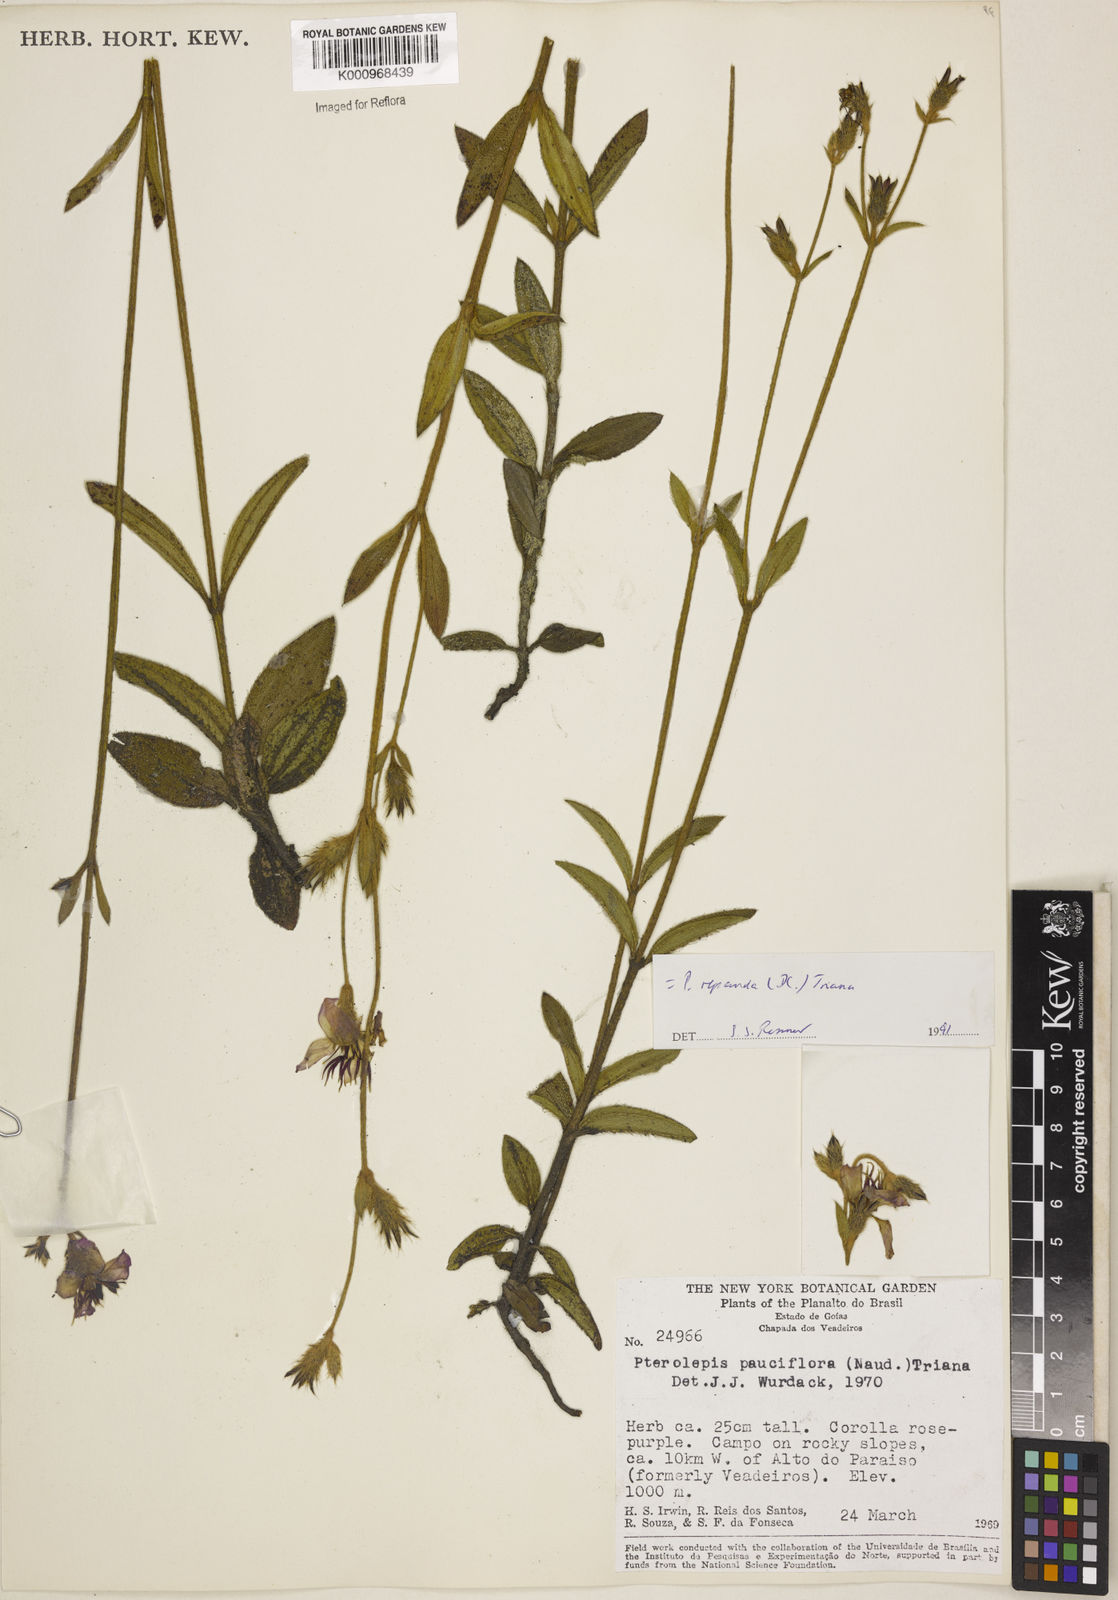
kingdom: Plantae
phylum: Tracheophyta
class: Magnoliopsida
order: Myrtales
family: Melastomataceae
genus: Pterolepis
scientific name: Pterolepis repanda
